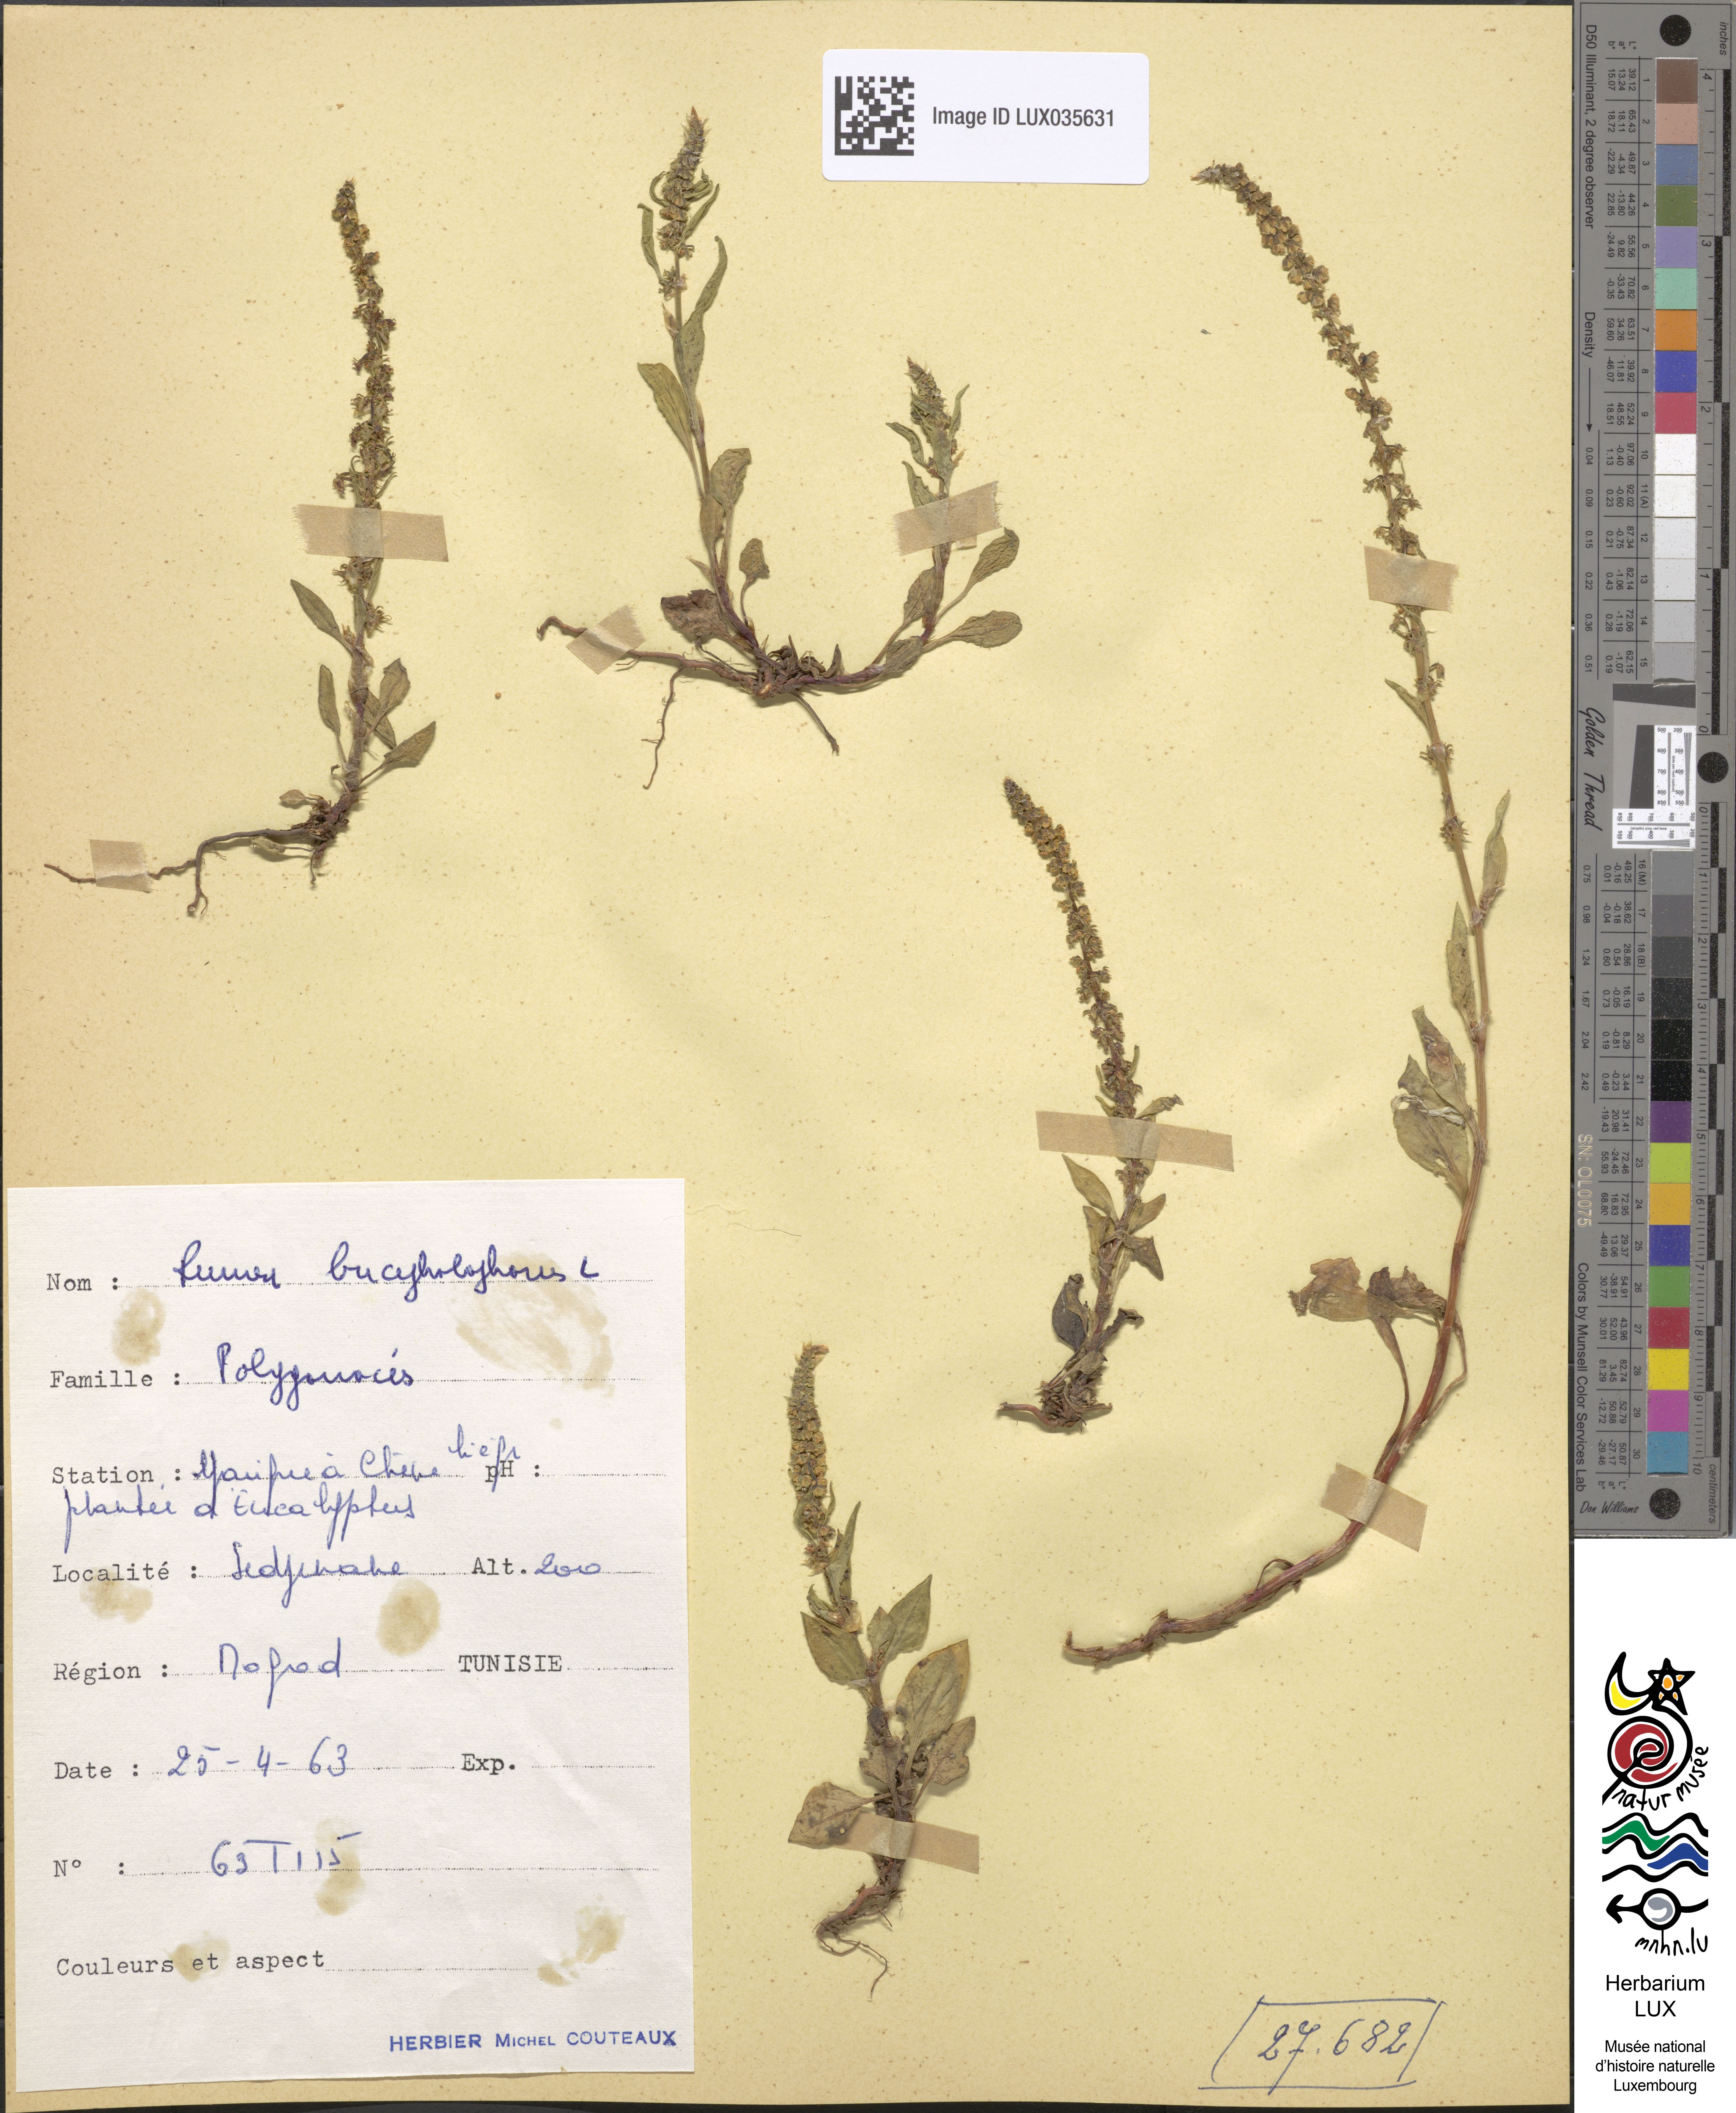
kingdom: Plantae
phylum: Tracheophyta
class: Magnoliopsida
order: Caryophyllales
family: Polygonaceae
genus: Rumex
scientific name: Rumex bucephalophorus
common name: Red dock
